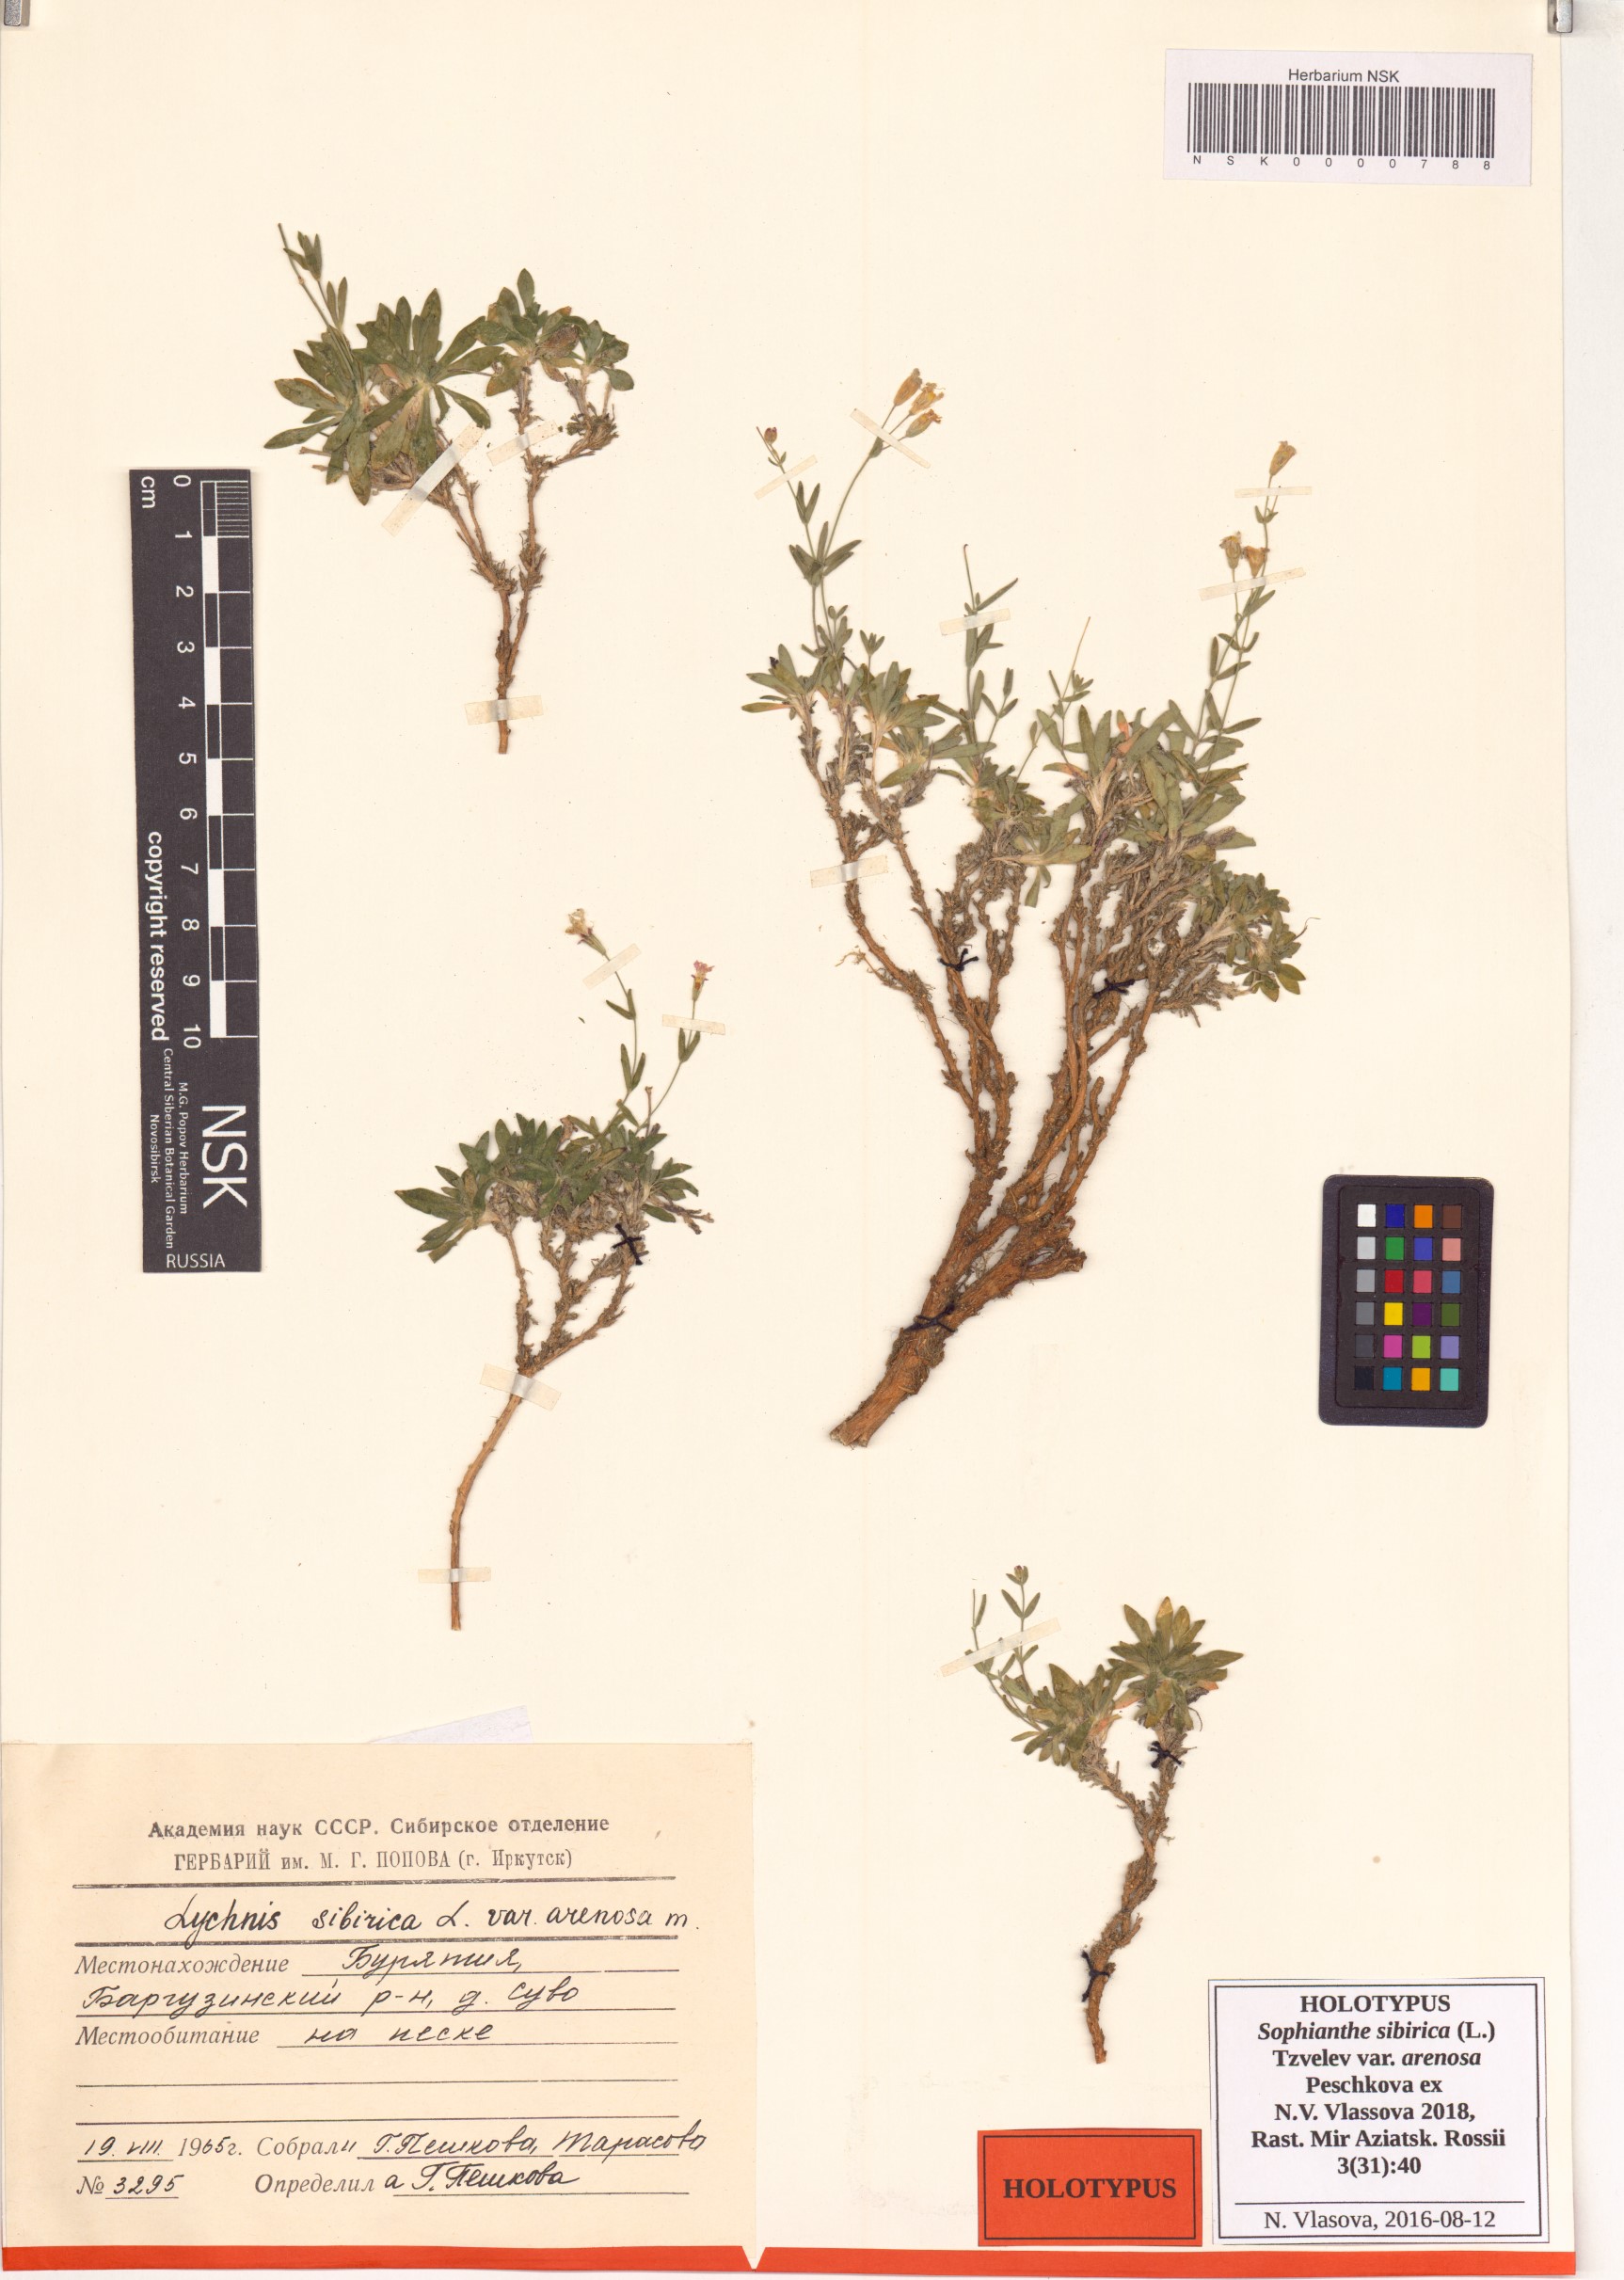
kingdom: Plantae
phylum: Tracheophyta
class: Magnoliopsida
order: Caryophyllales
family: Caryophyllaceae
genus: Silene
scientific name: Silene orientalimongolica
